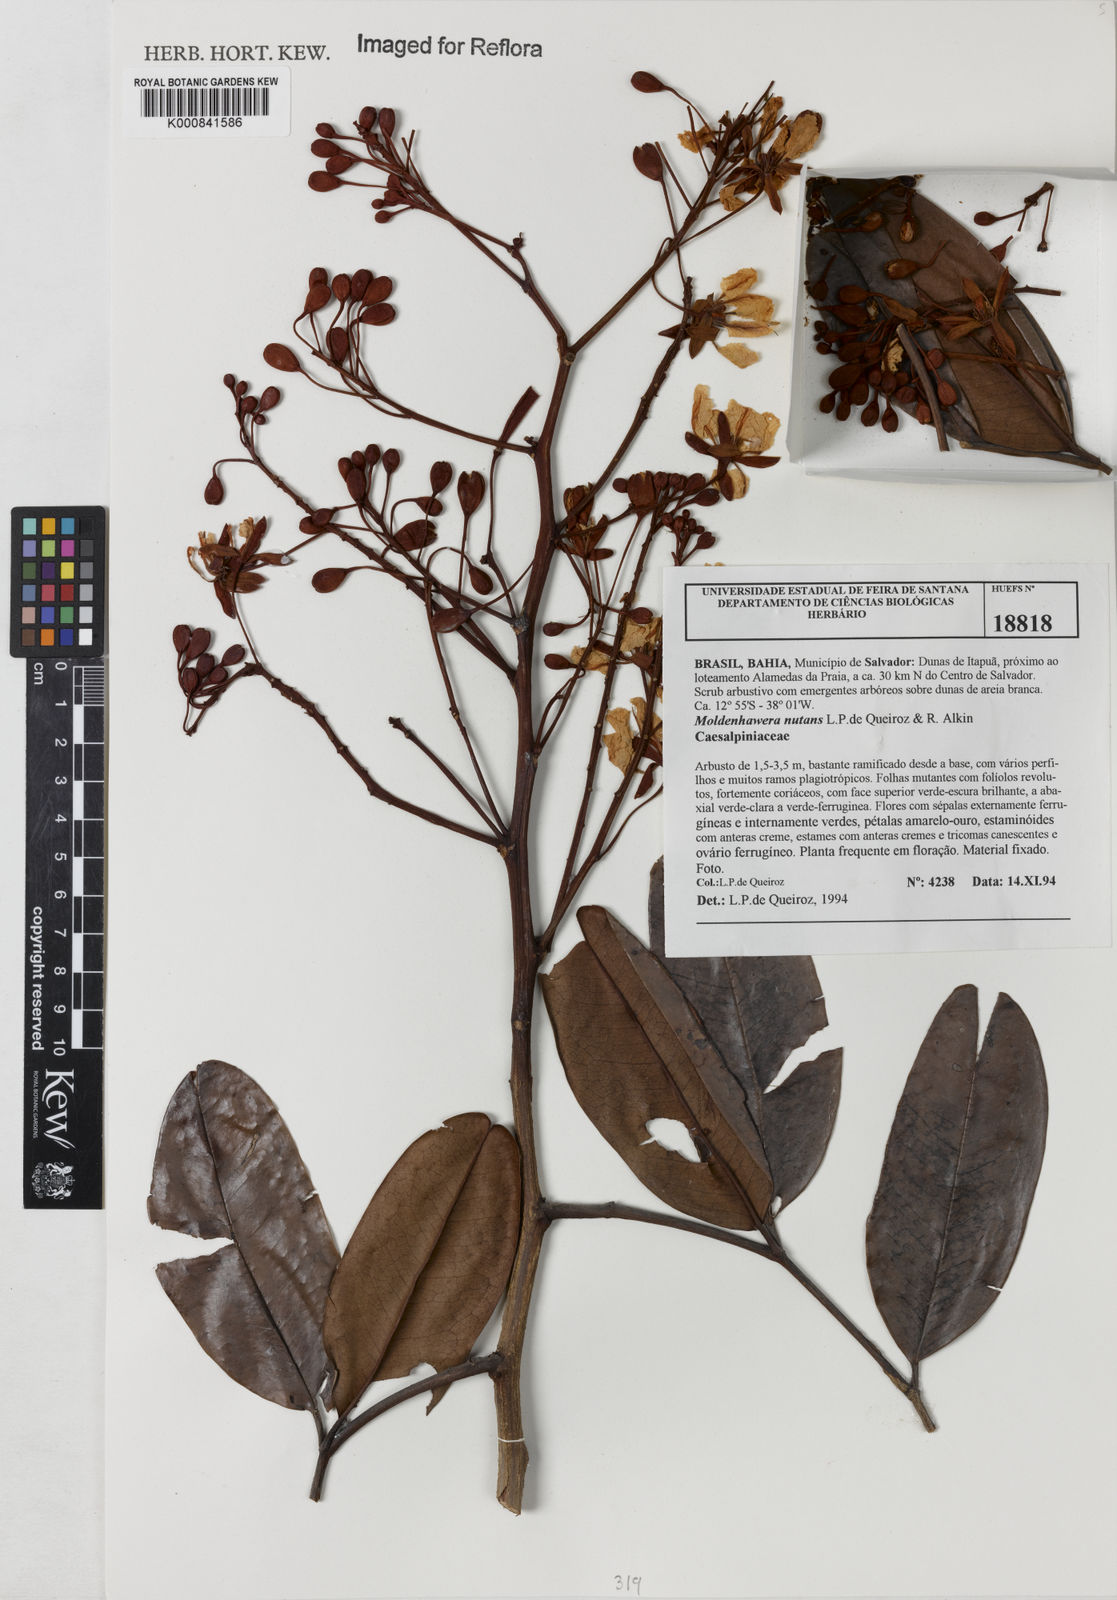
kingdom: Plantae
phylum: Tracheophyta
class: Magnoliopsida
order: Fabales
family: Fabaceae
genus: Moldenhawera
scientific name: Moldenhawera
